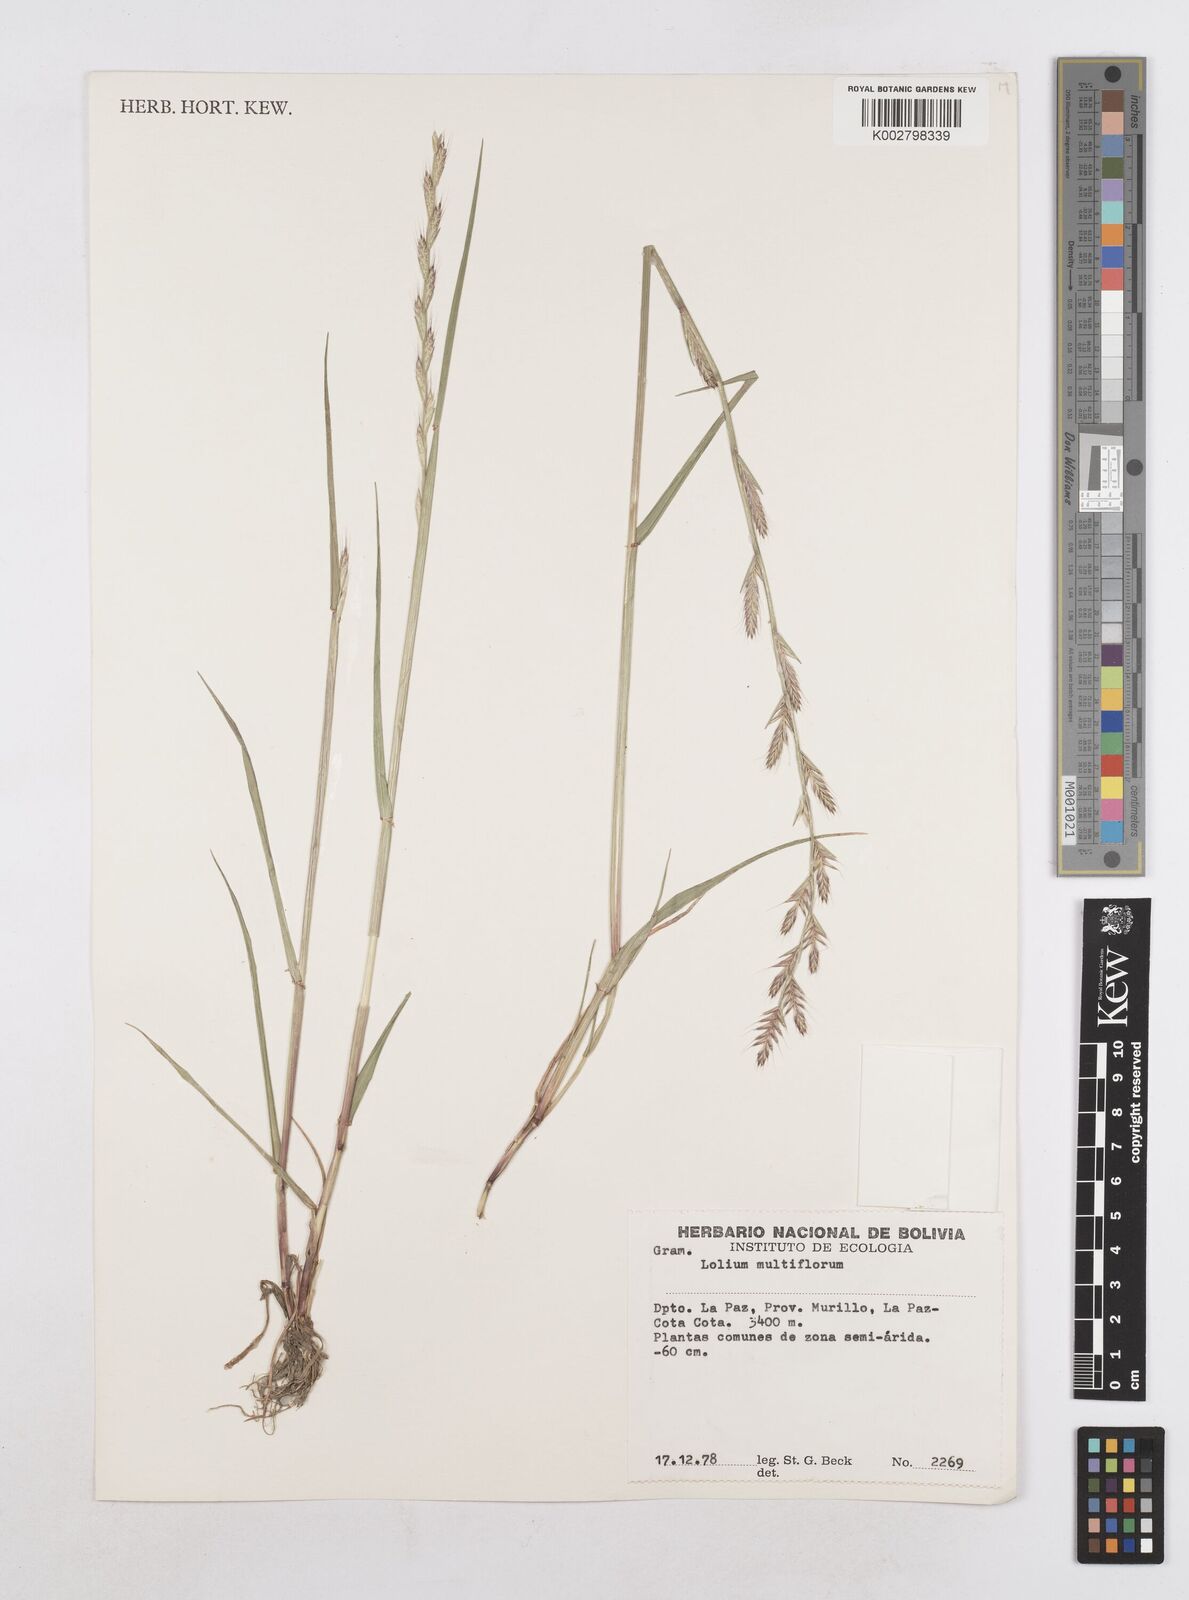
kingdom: Plantae
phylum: Tracheophyta
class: Liliopsida
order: Poales
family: Poaceae
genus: Lolium
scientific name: Lolium multiflorum
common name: Annual ryegrass
